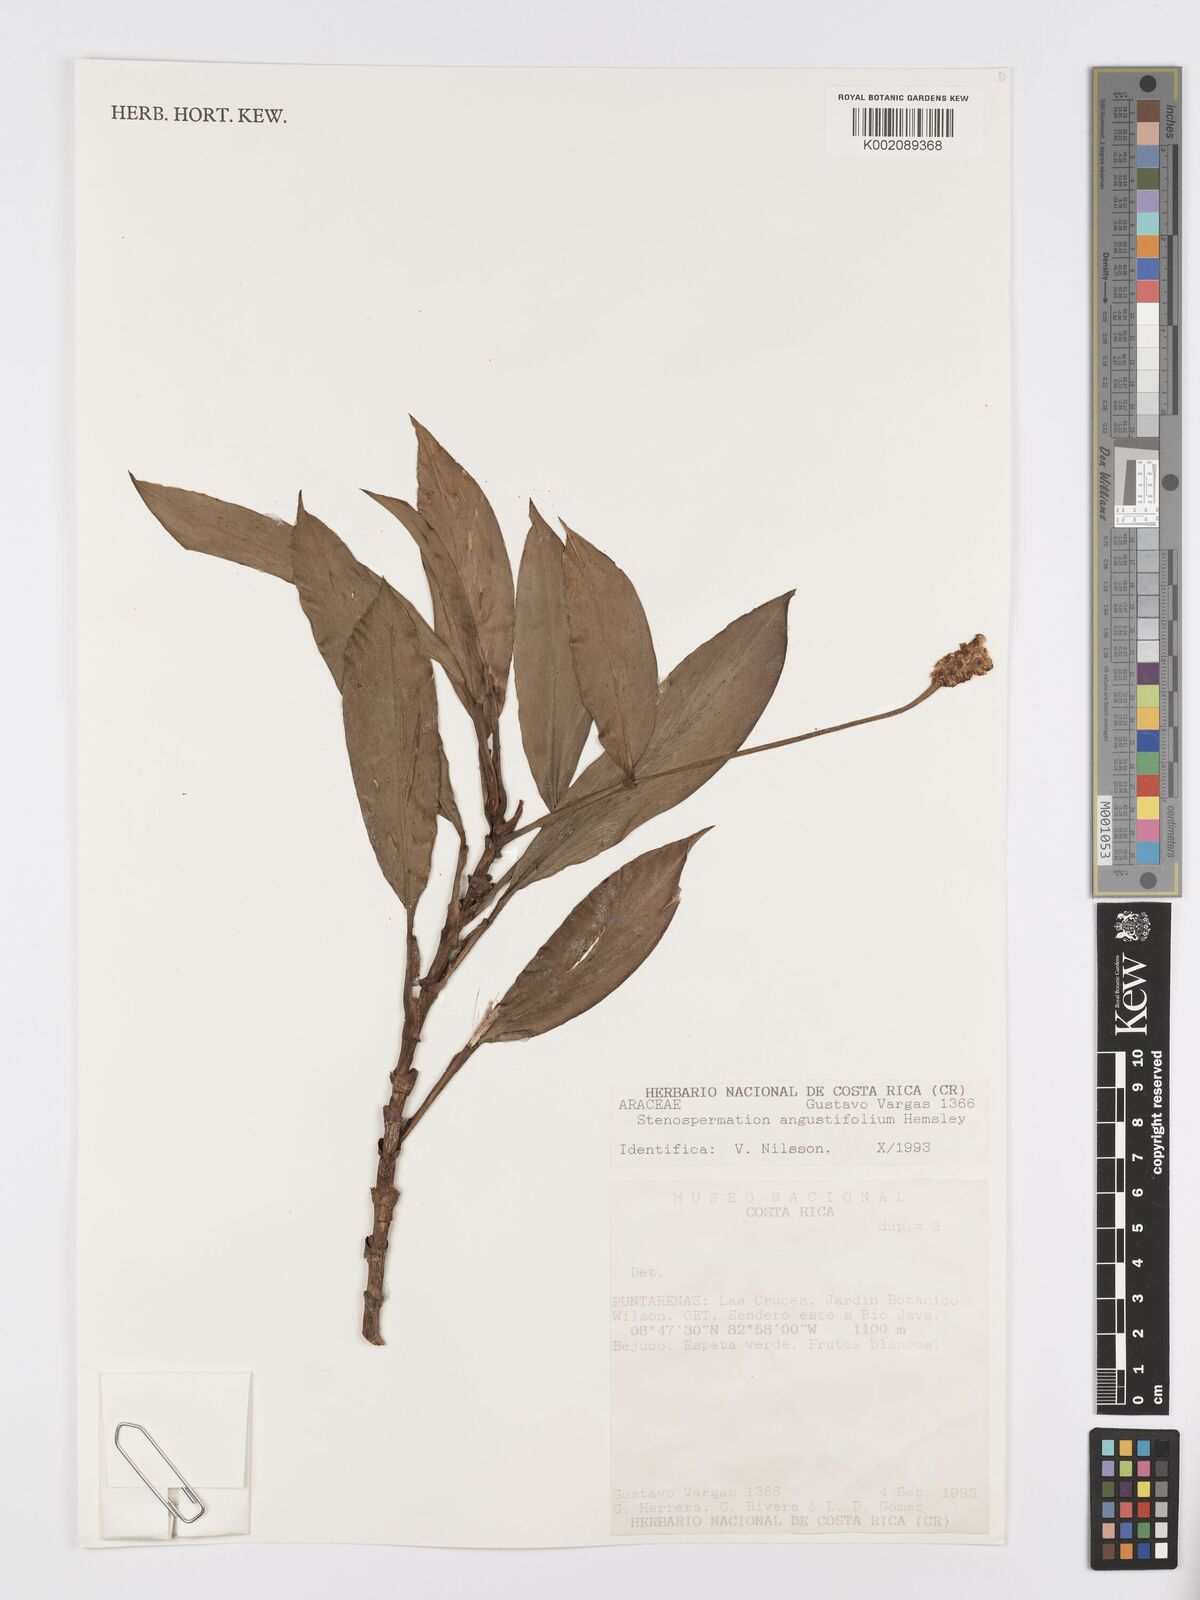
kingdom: Plantae
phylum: Tracheophyta
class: Liliopsida
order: Alismatales
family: Araceae
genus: Stenospermation
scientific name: Stenospermation angustifolium
